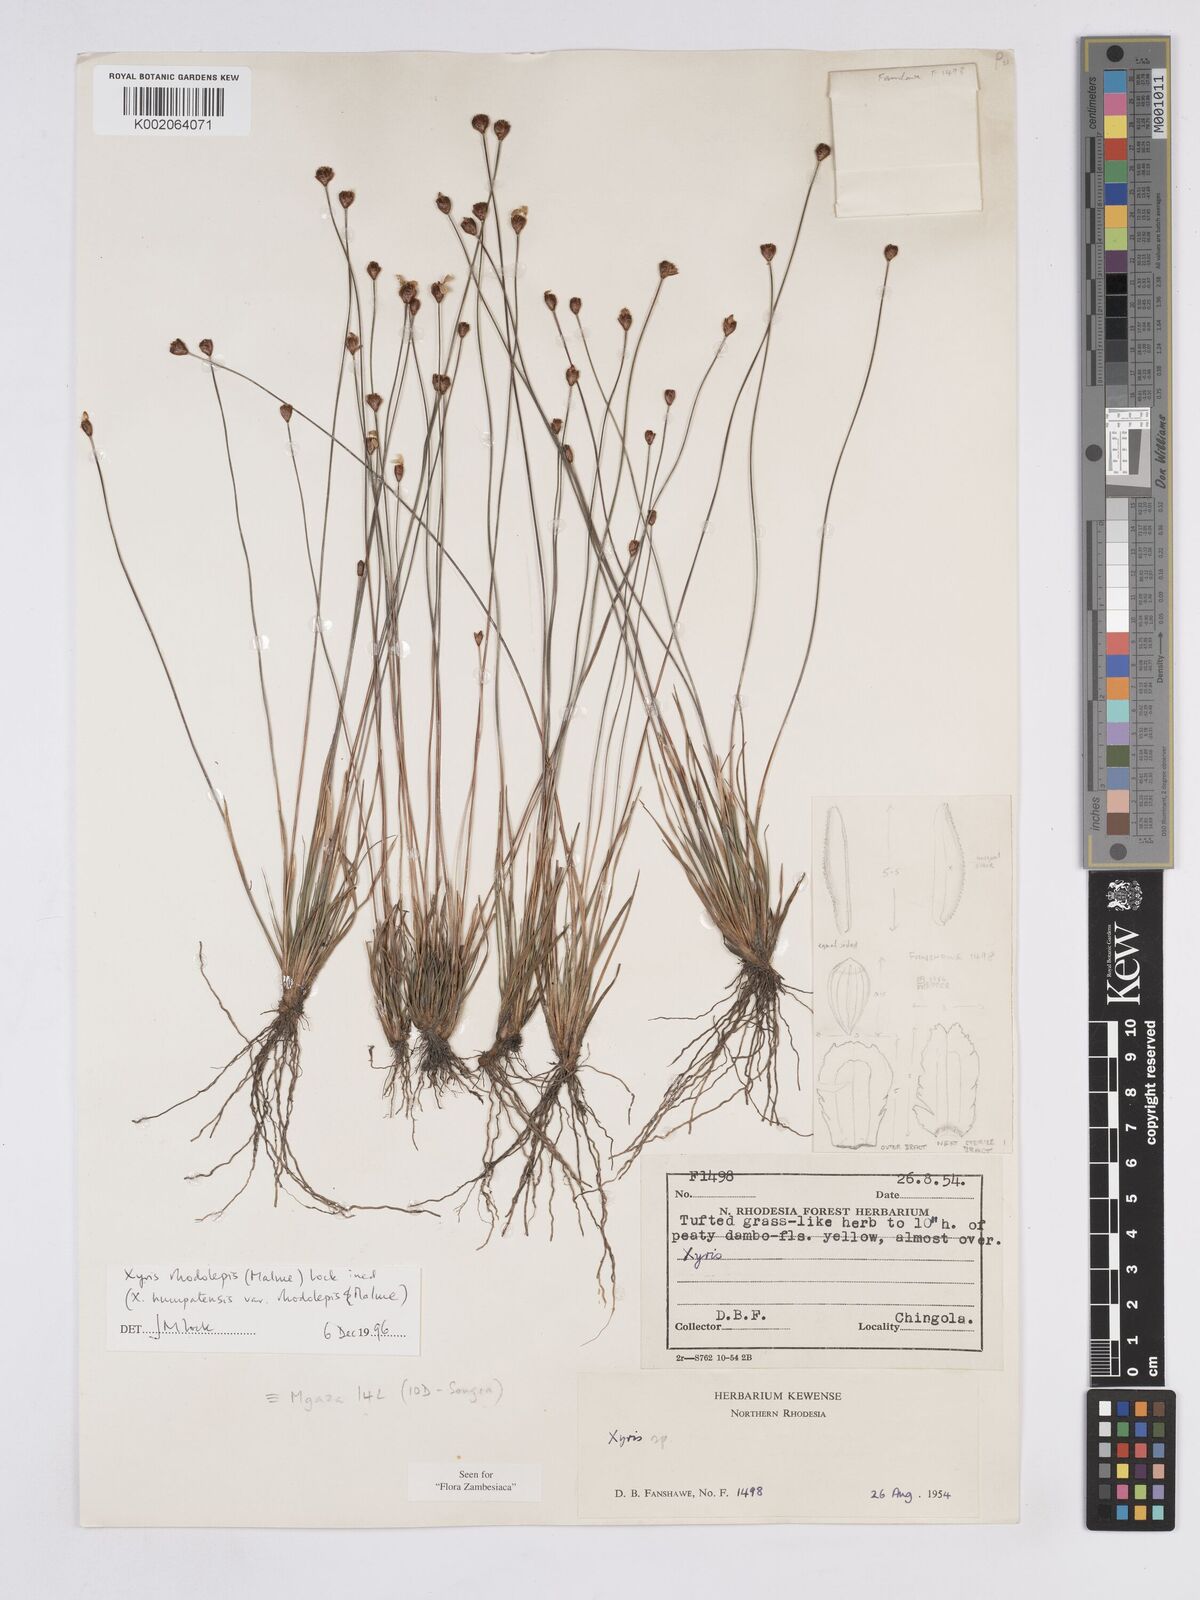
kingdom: Plantae
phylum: Tracheophyta
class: Liliopsida
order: Poales
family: Xyridaceae
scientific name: Xyridaceae
